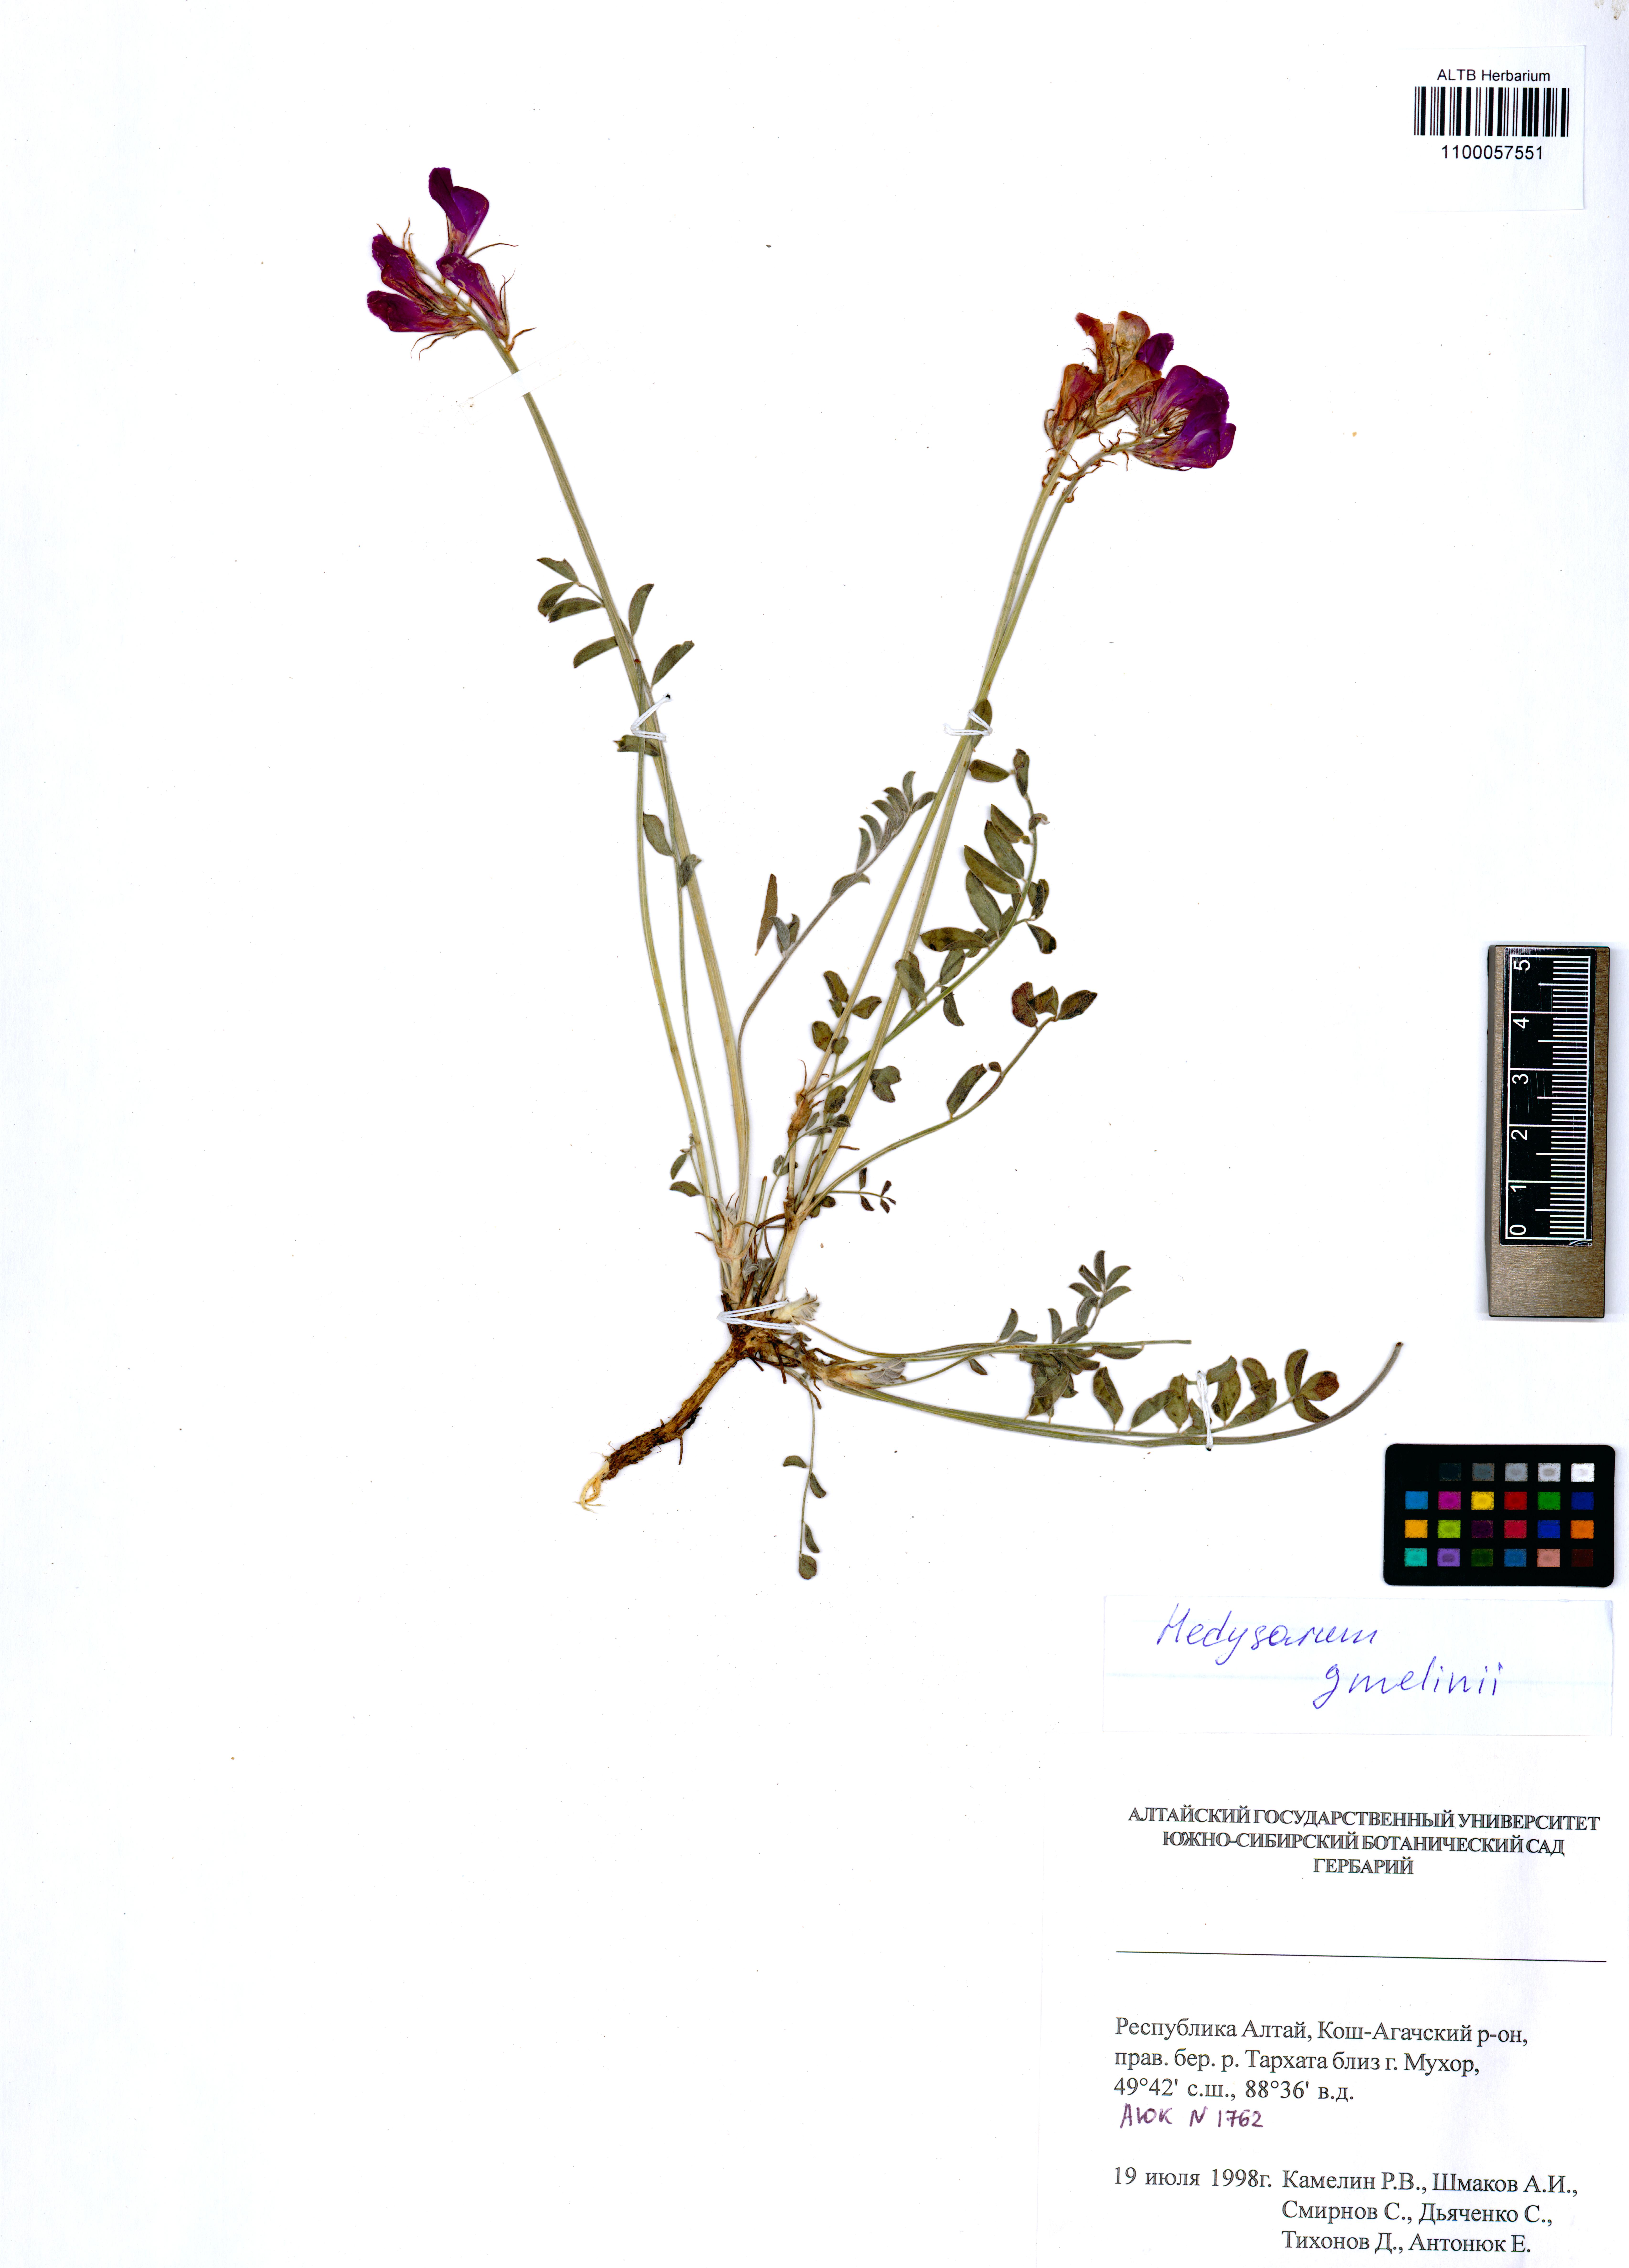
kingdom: Plantae
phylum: Tracheophyta
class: Magnoliopsida
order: Fabales
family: Fabaceae
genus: Hedysarum
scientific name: Hedysarum gmelinii
